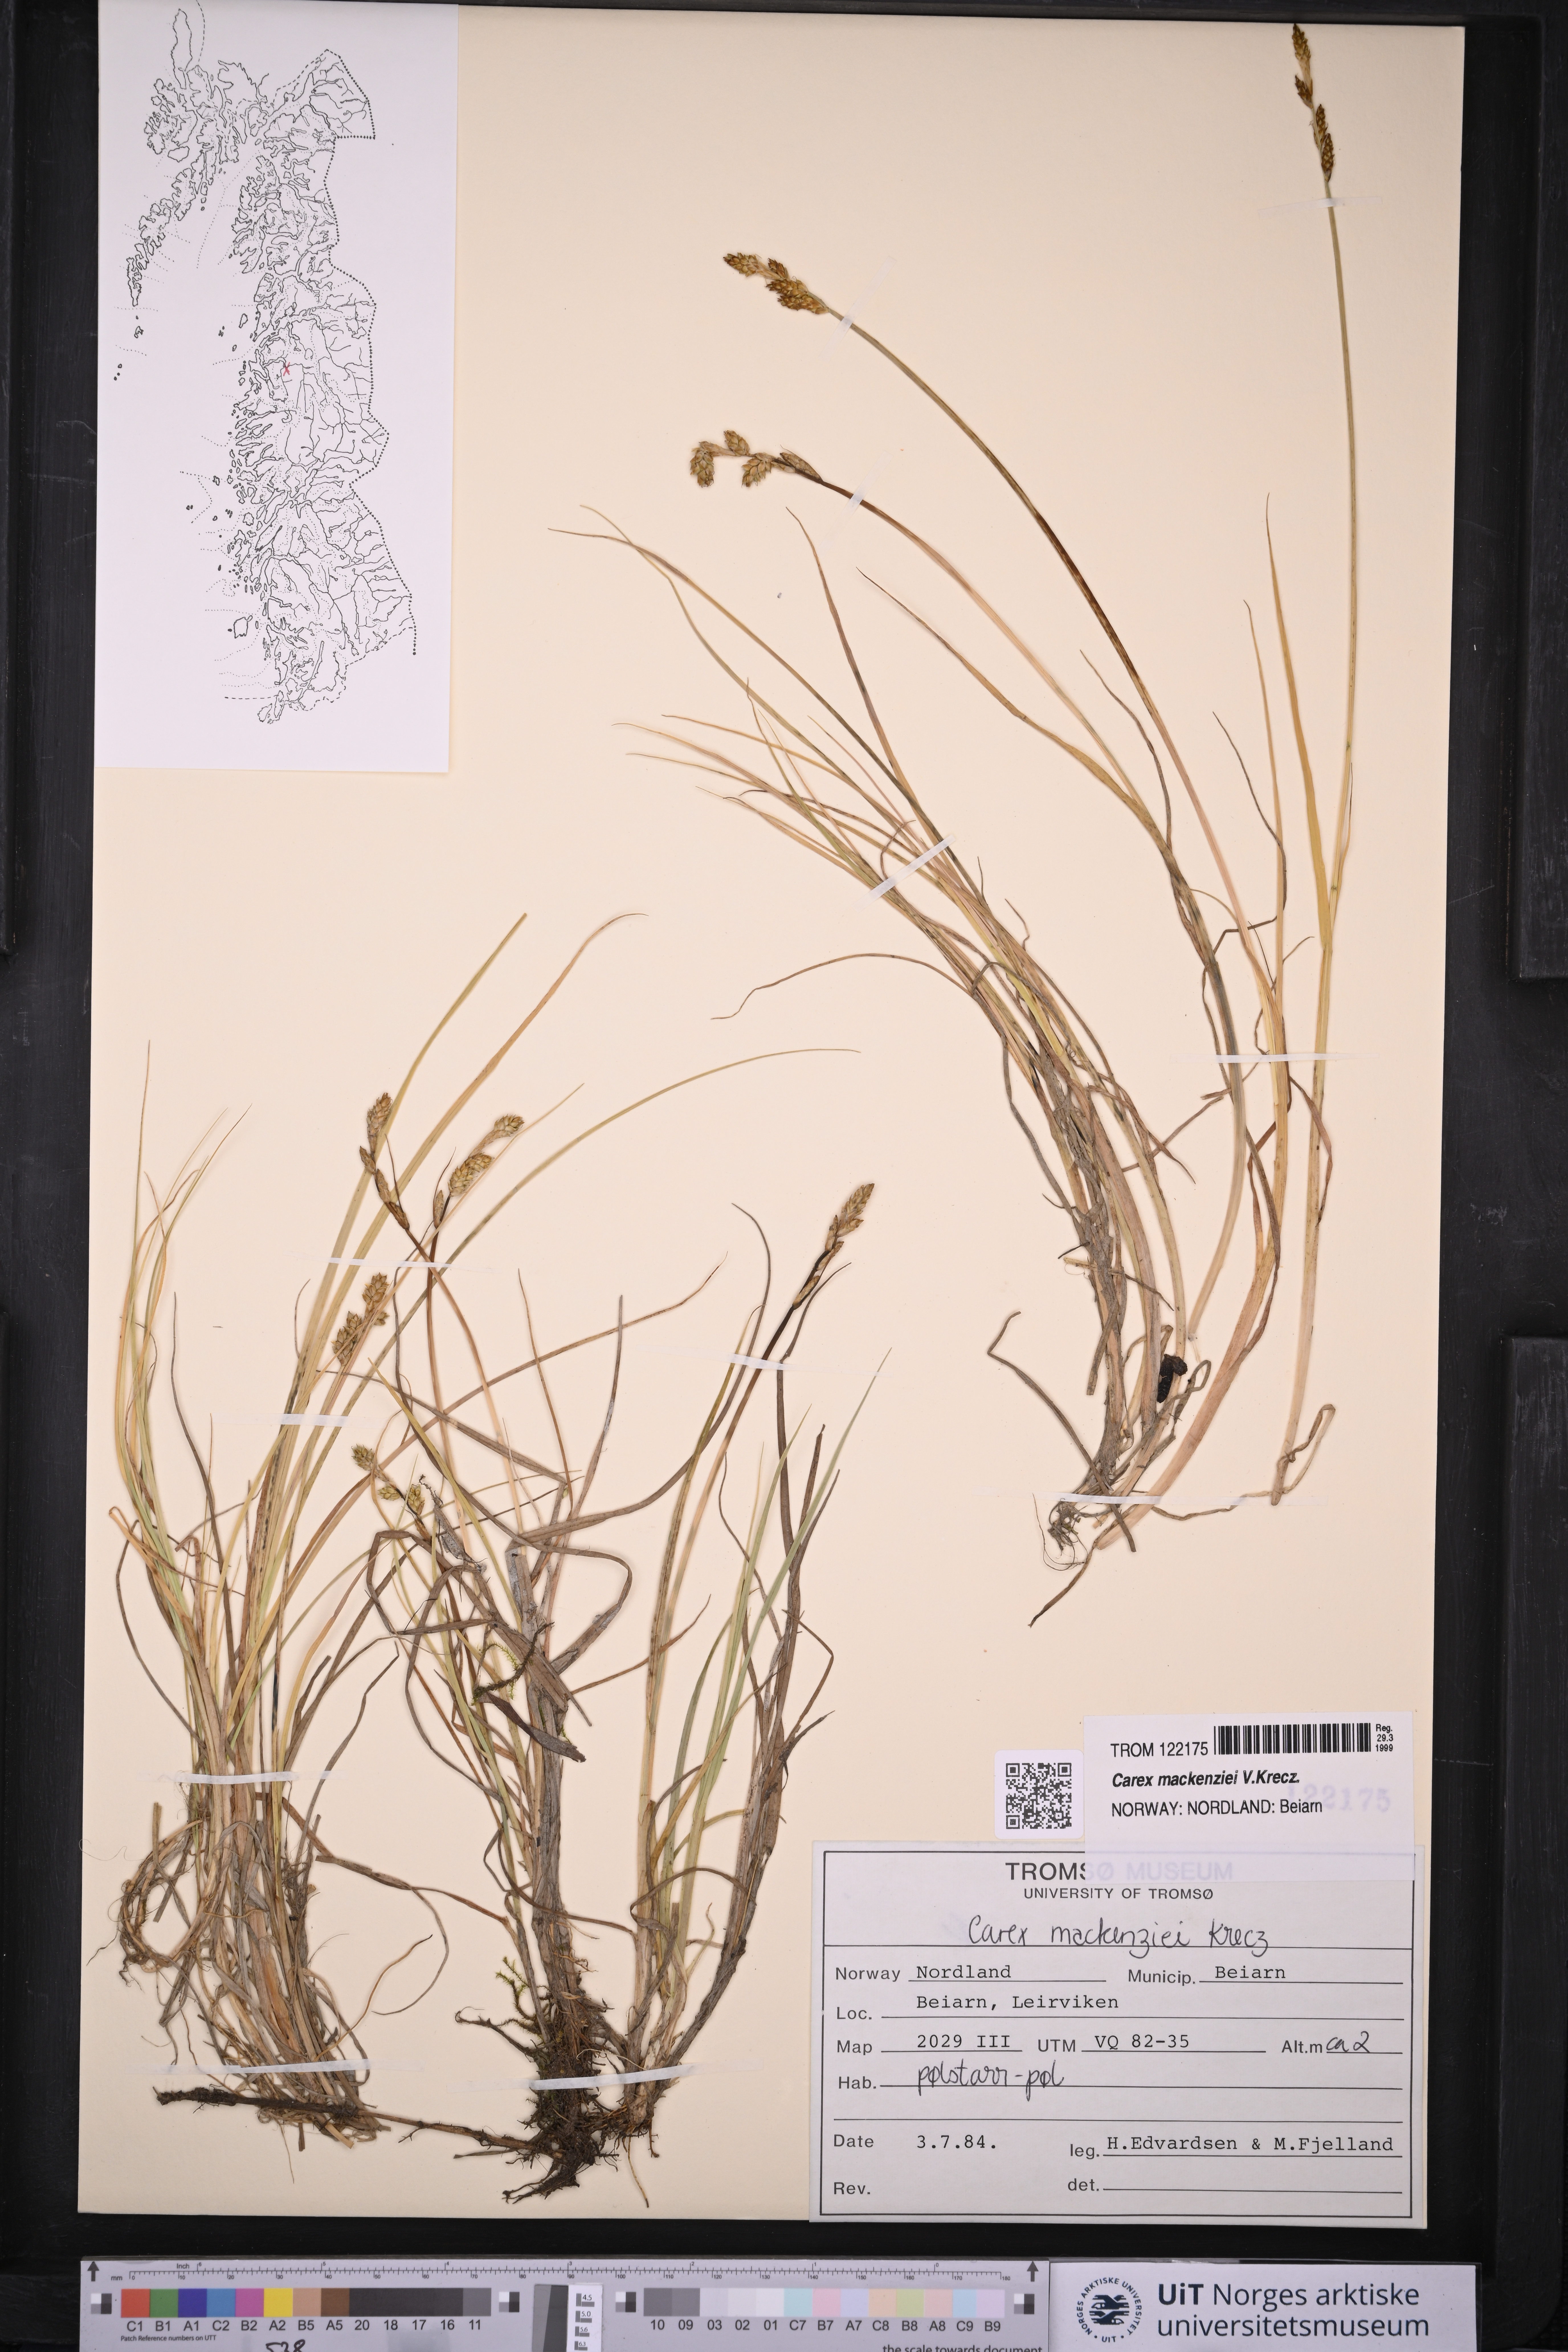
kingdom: Plantae
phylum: Tracheophyta
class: Liliopsida
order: Poales
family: Cyperaceae
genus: Carex
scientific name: Carex mackenziei
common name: Mackenzie's sedge
